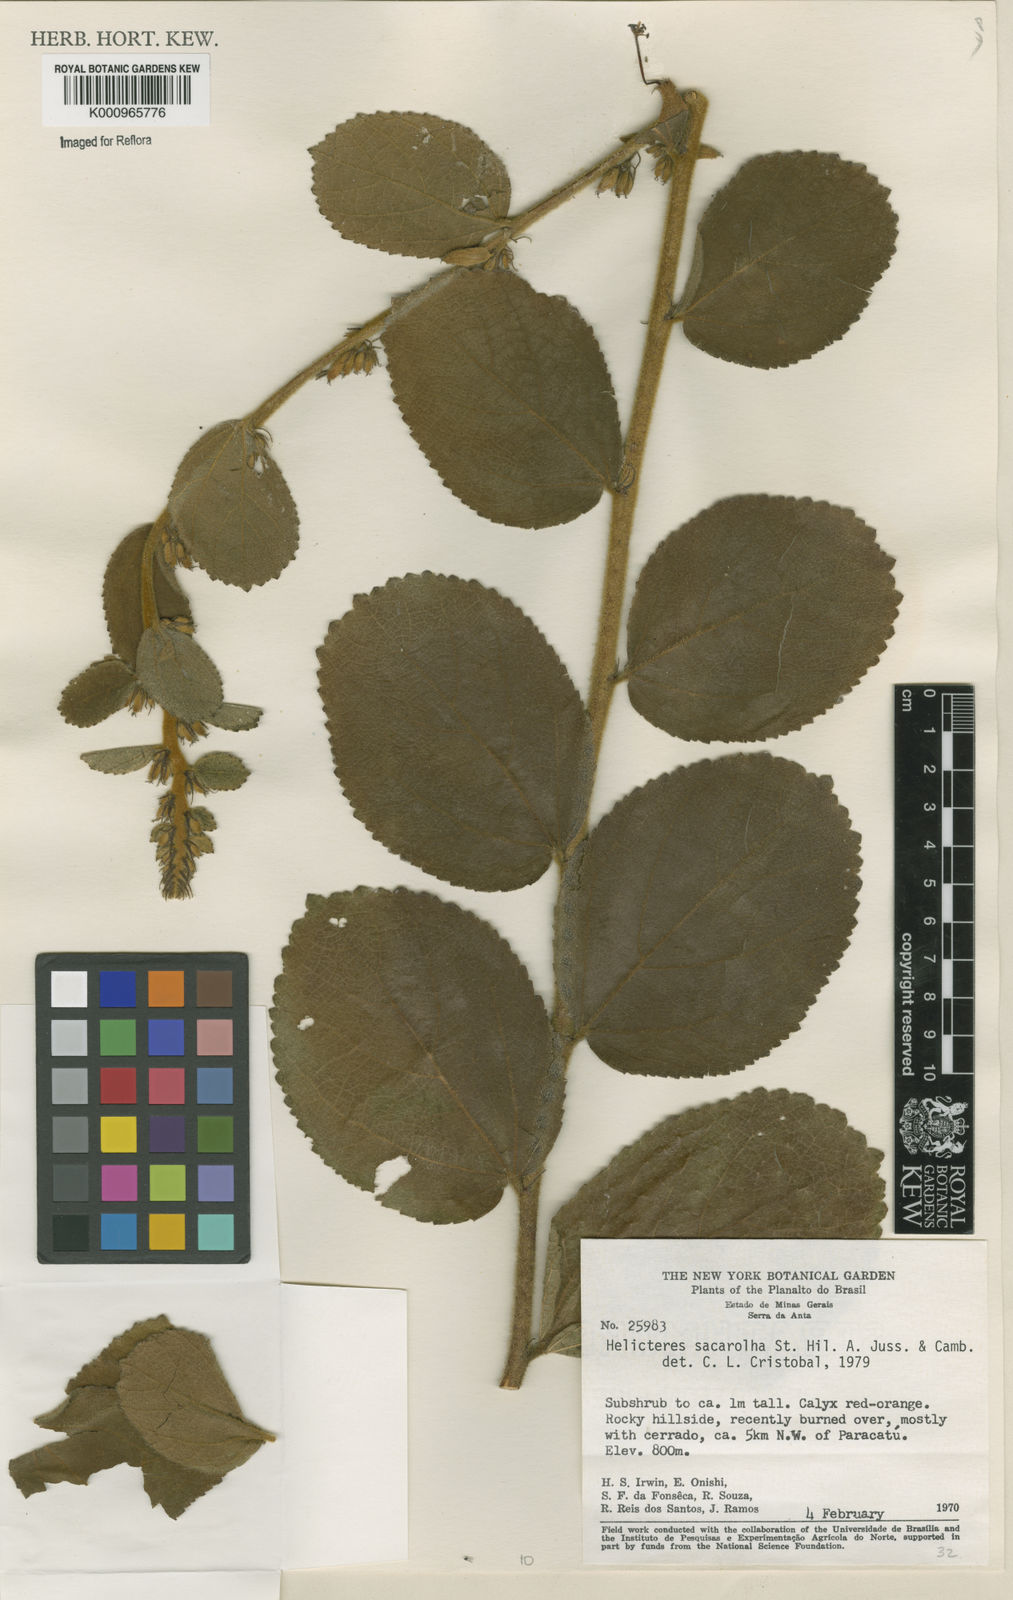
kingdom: Plantae
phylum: Tracheophyta
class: Magnoliopsida
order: Malvales
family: Malvaceae
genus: Helicteres
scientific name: Helicteres
